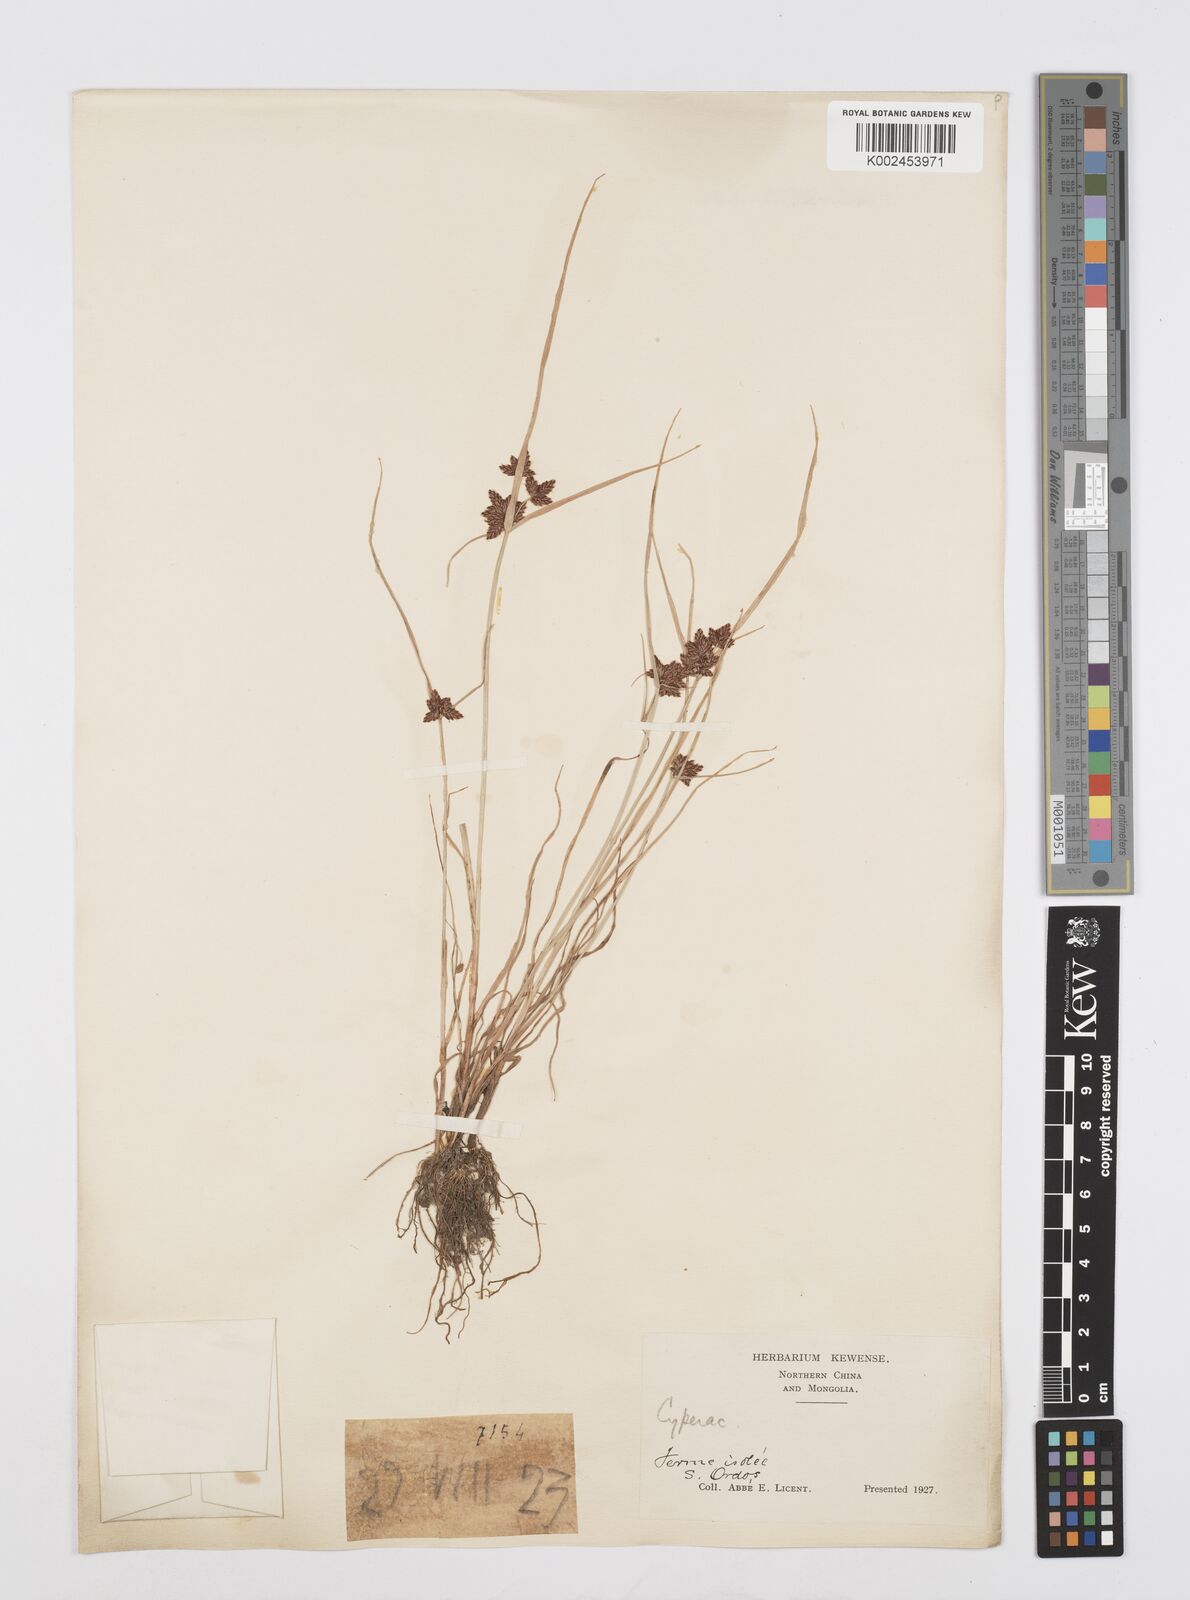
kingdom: Plantae
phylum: Tracheophyta
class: Liliopsida
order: Poales
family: Cyperaceae
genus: Cyperus
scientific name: Cyperus sanguinolentus
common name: Purpleglume flatsedge
